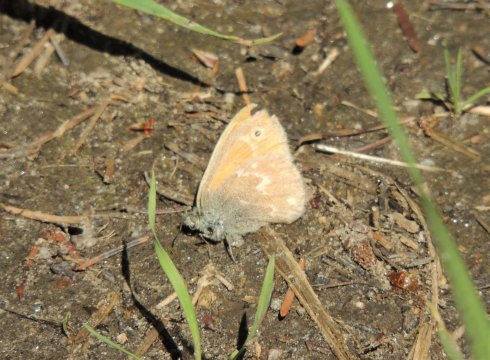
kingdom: Animalia
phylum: Arthropoda
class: Insecta
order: Lepidoptera
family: Nymphalidae
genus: Coenonympha
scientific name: Coenonympha tullia
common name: Large Heath
